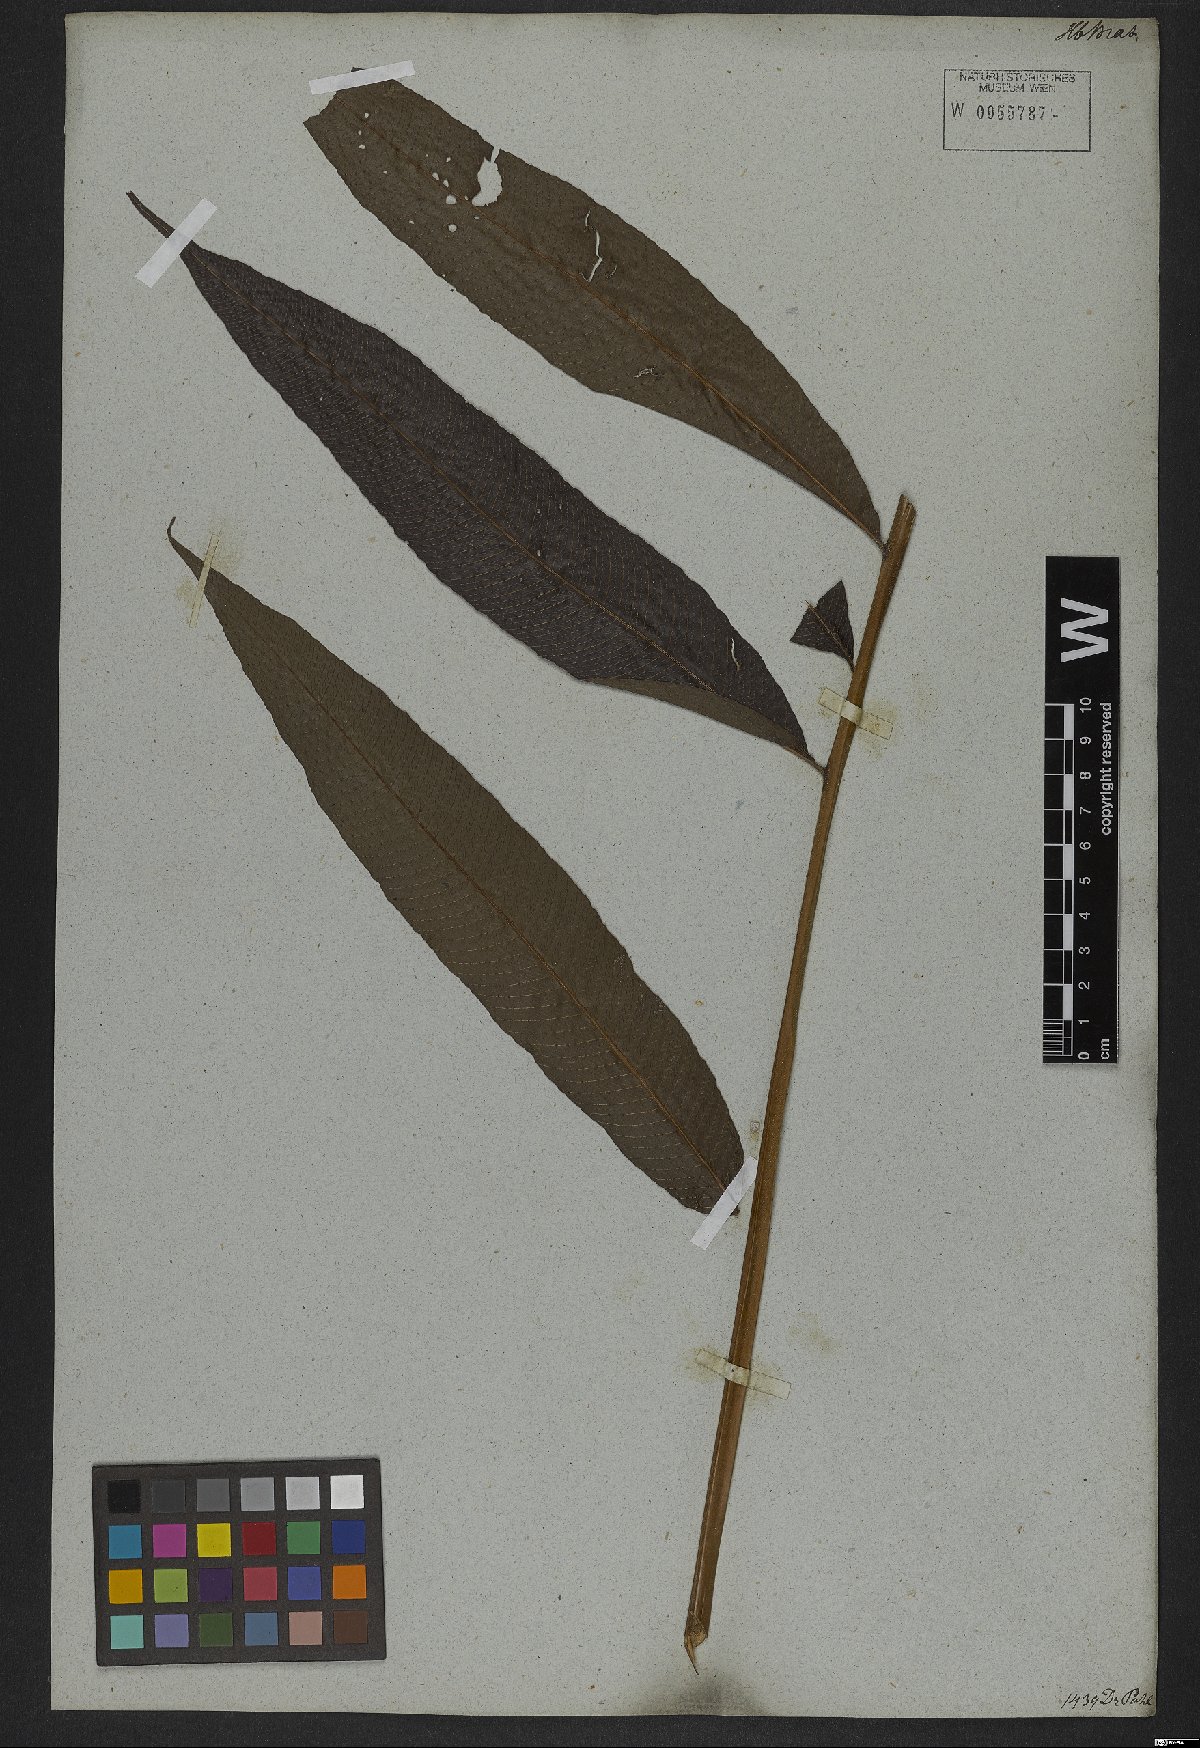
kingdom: Plantae
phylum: Tracheophyta
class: Polypodiopsida
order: Polypodiales
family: Thelypteridaceae
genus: Meniscium
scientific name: Meniscium reticulatum
